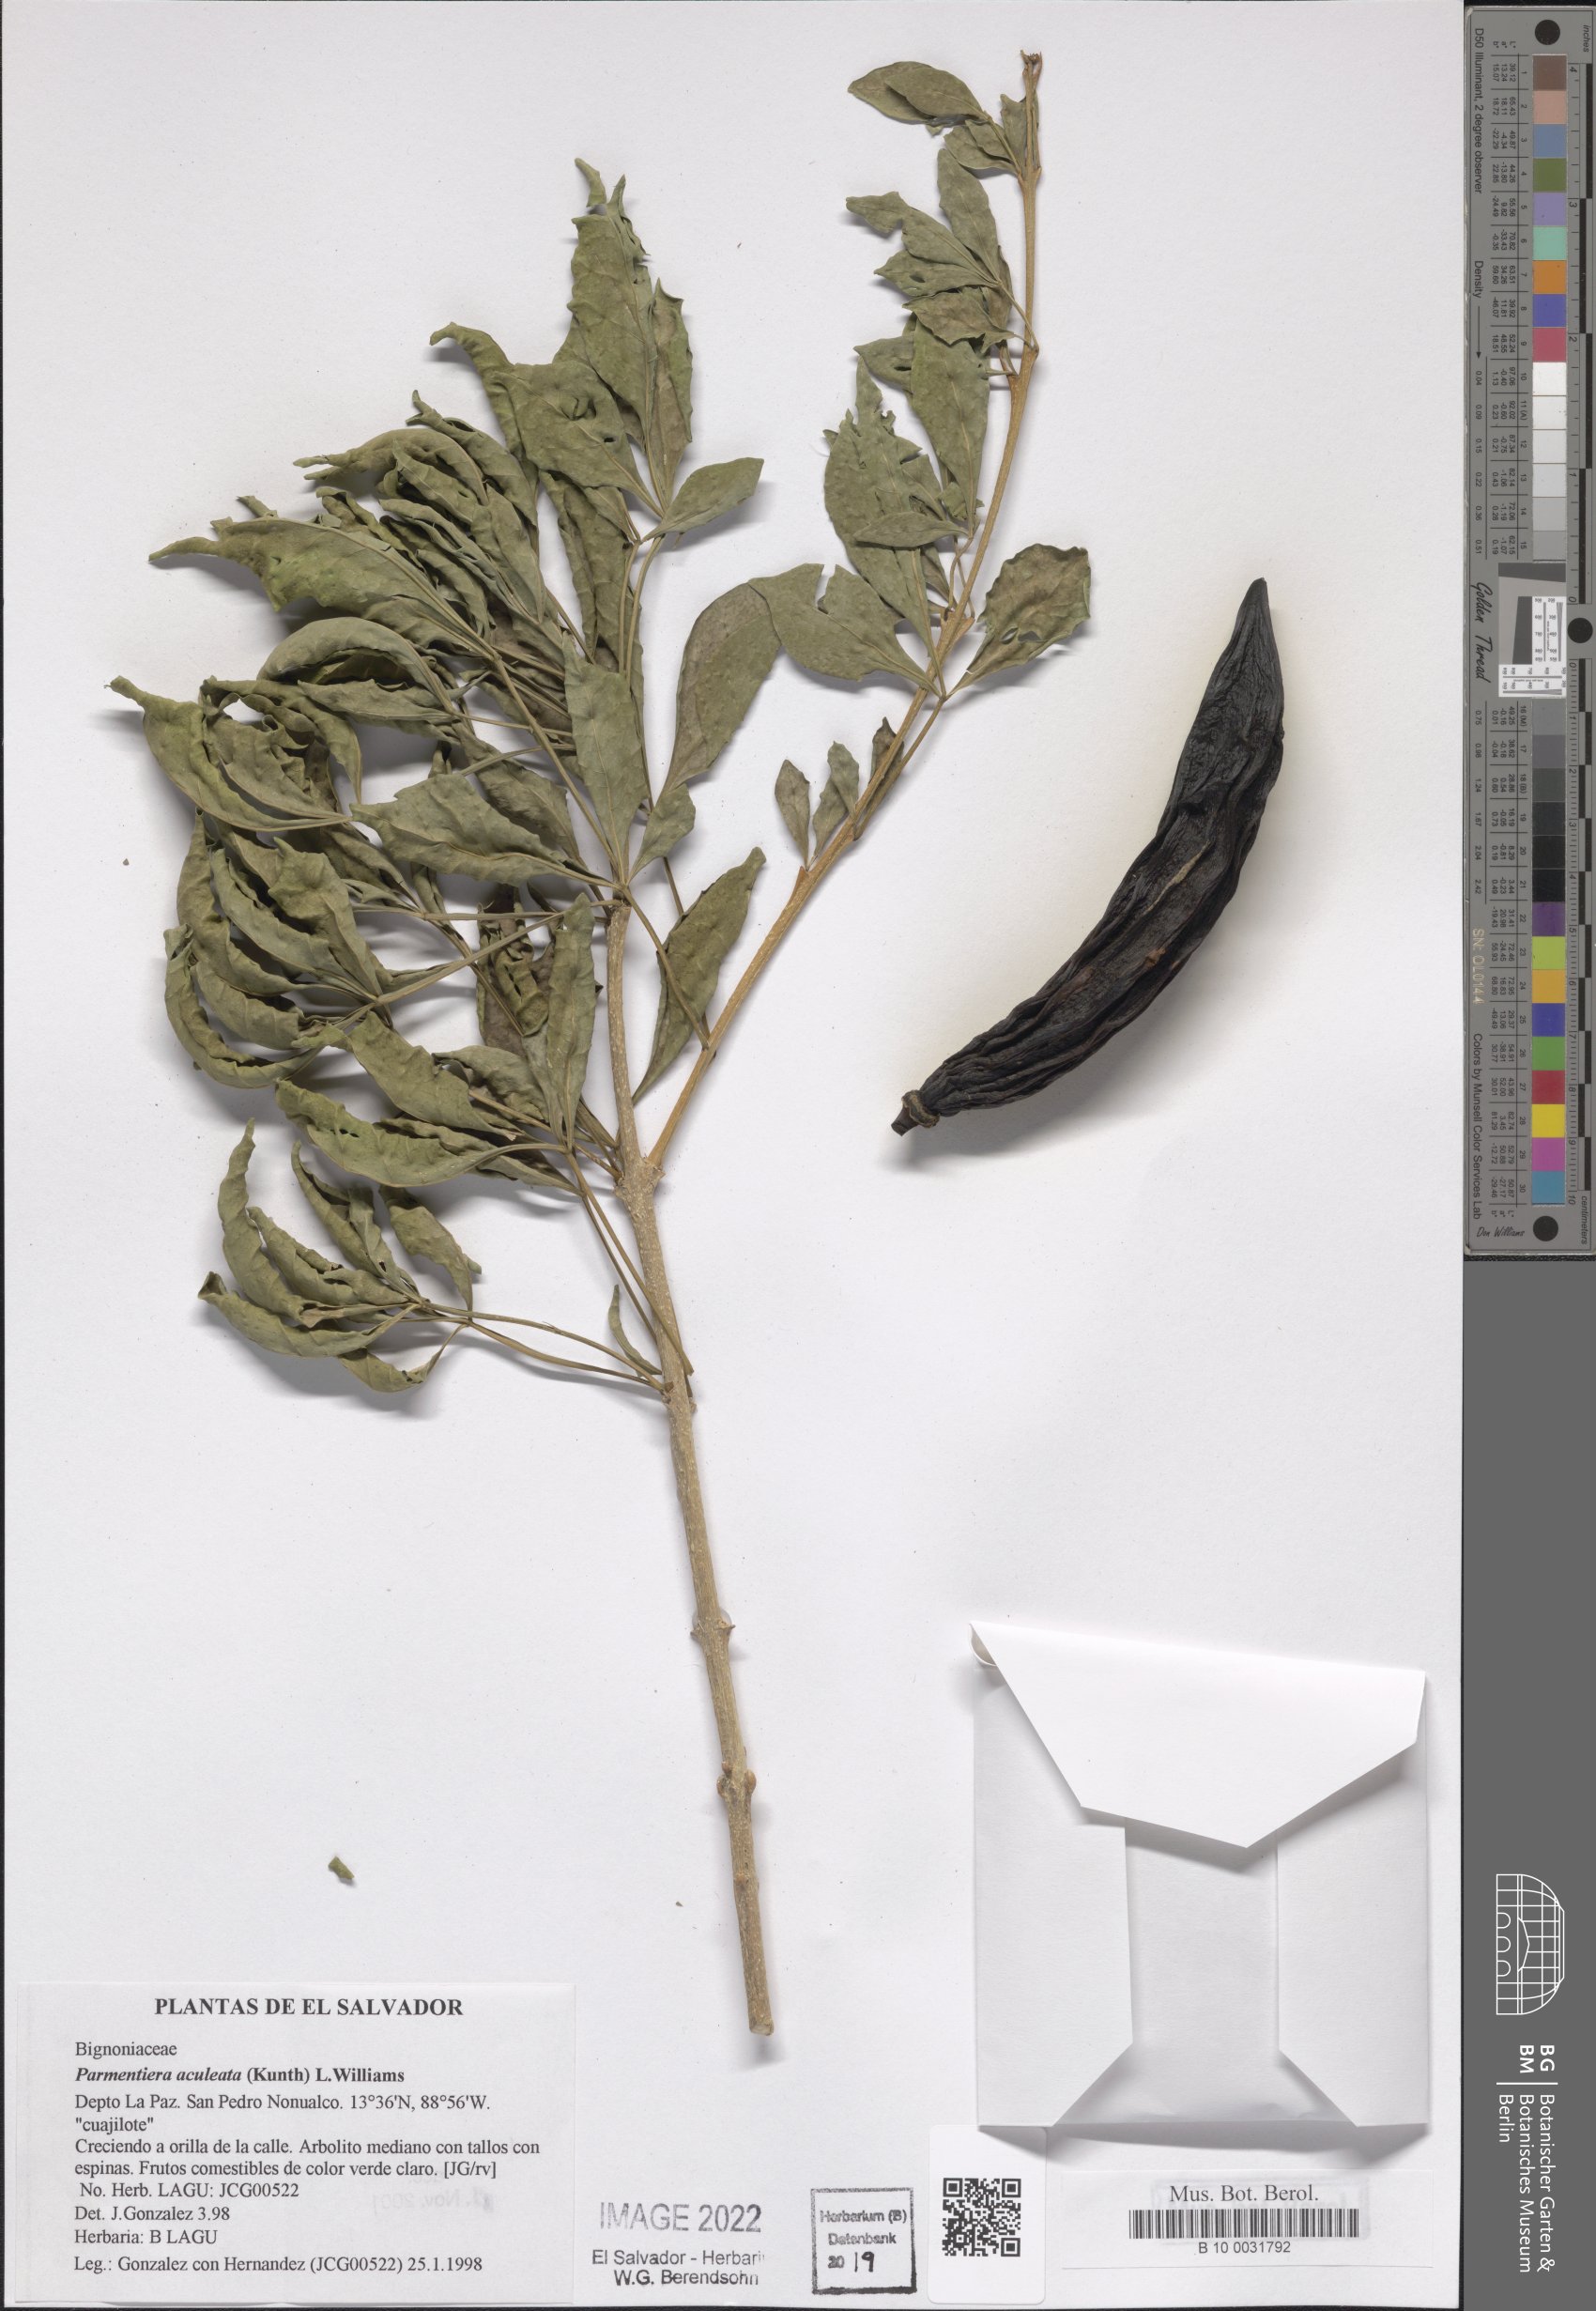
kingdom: Plantae
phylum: Tracheophyta
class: Magnoliopsida
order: Lamiales
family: Bignoniaceae
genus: Parmentiera
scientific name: Parmentiera aculeata
